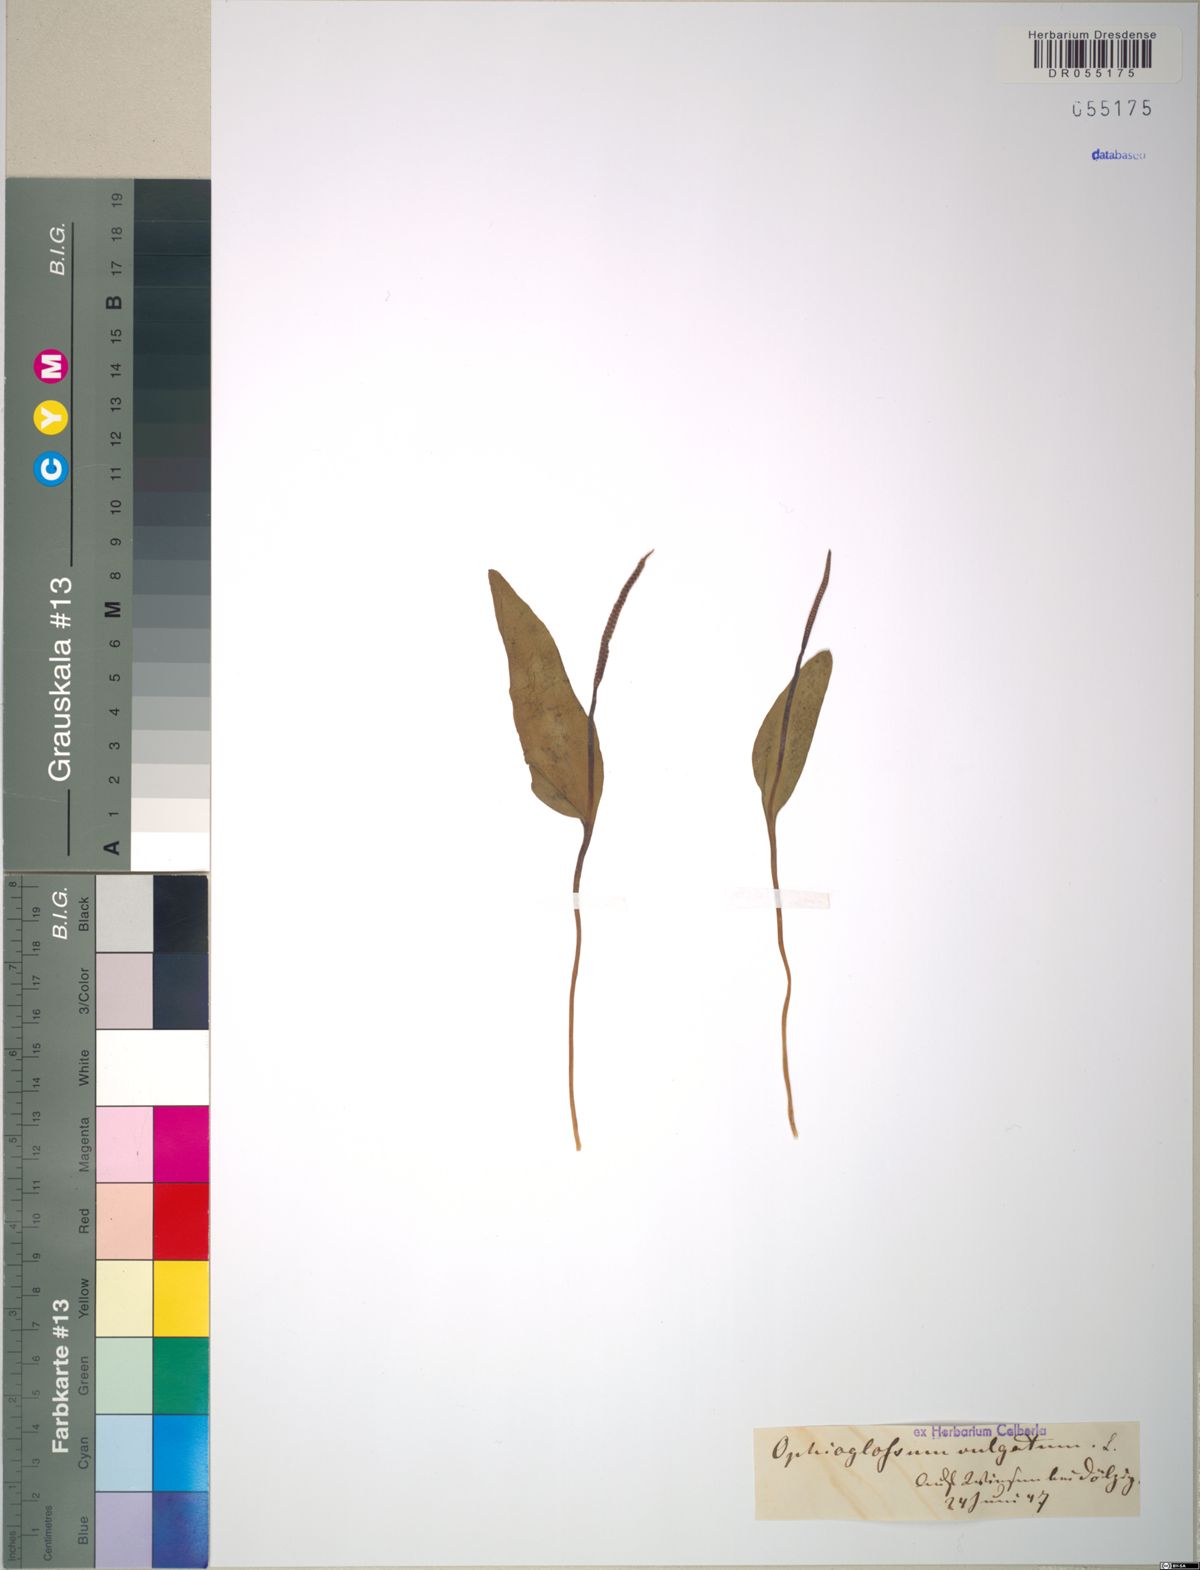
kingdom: Plantae
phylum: Tracheophyta
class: Polypodiopsida
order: Ophioglossales
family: Ophioglossaceae
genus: Ophioglossum
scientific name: Ophioglossum vulgatum
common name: Adder's-tongue
